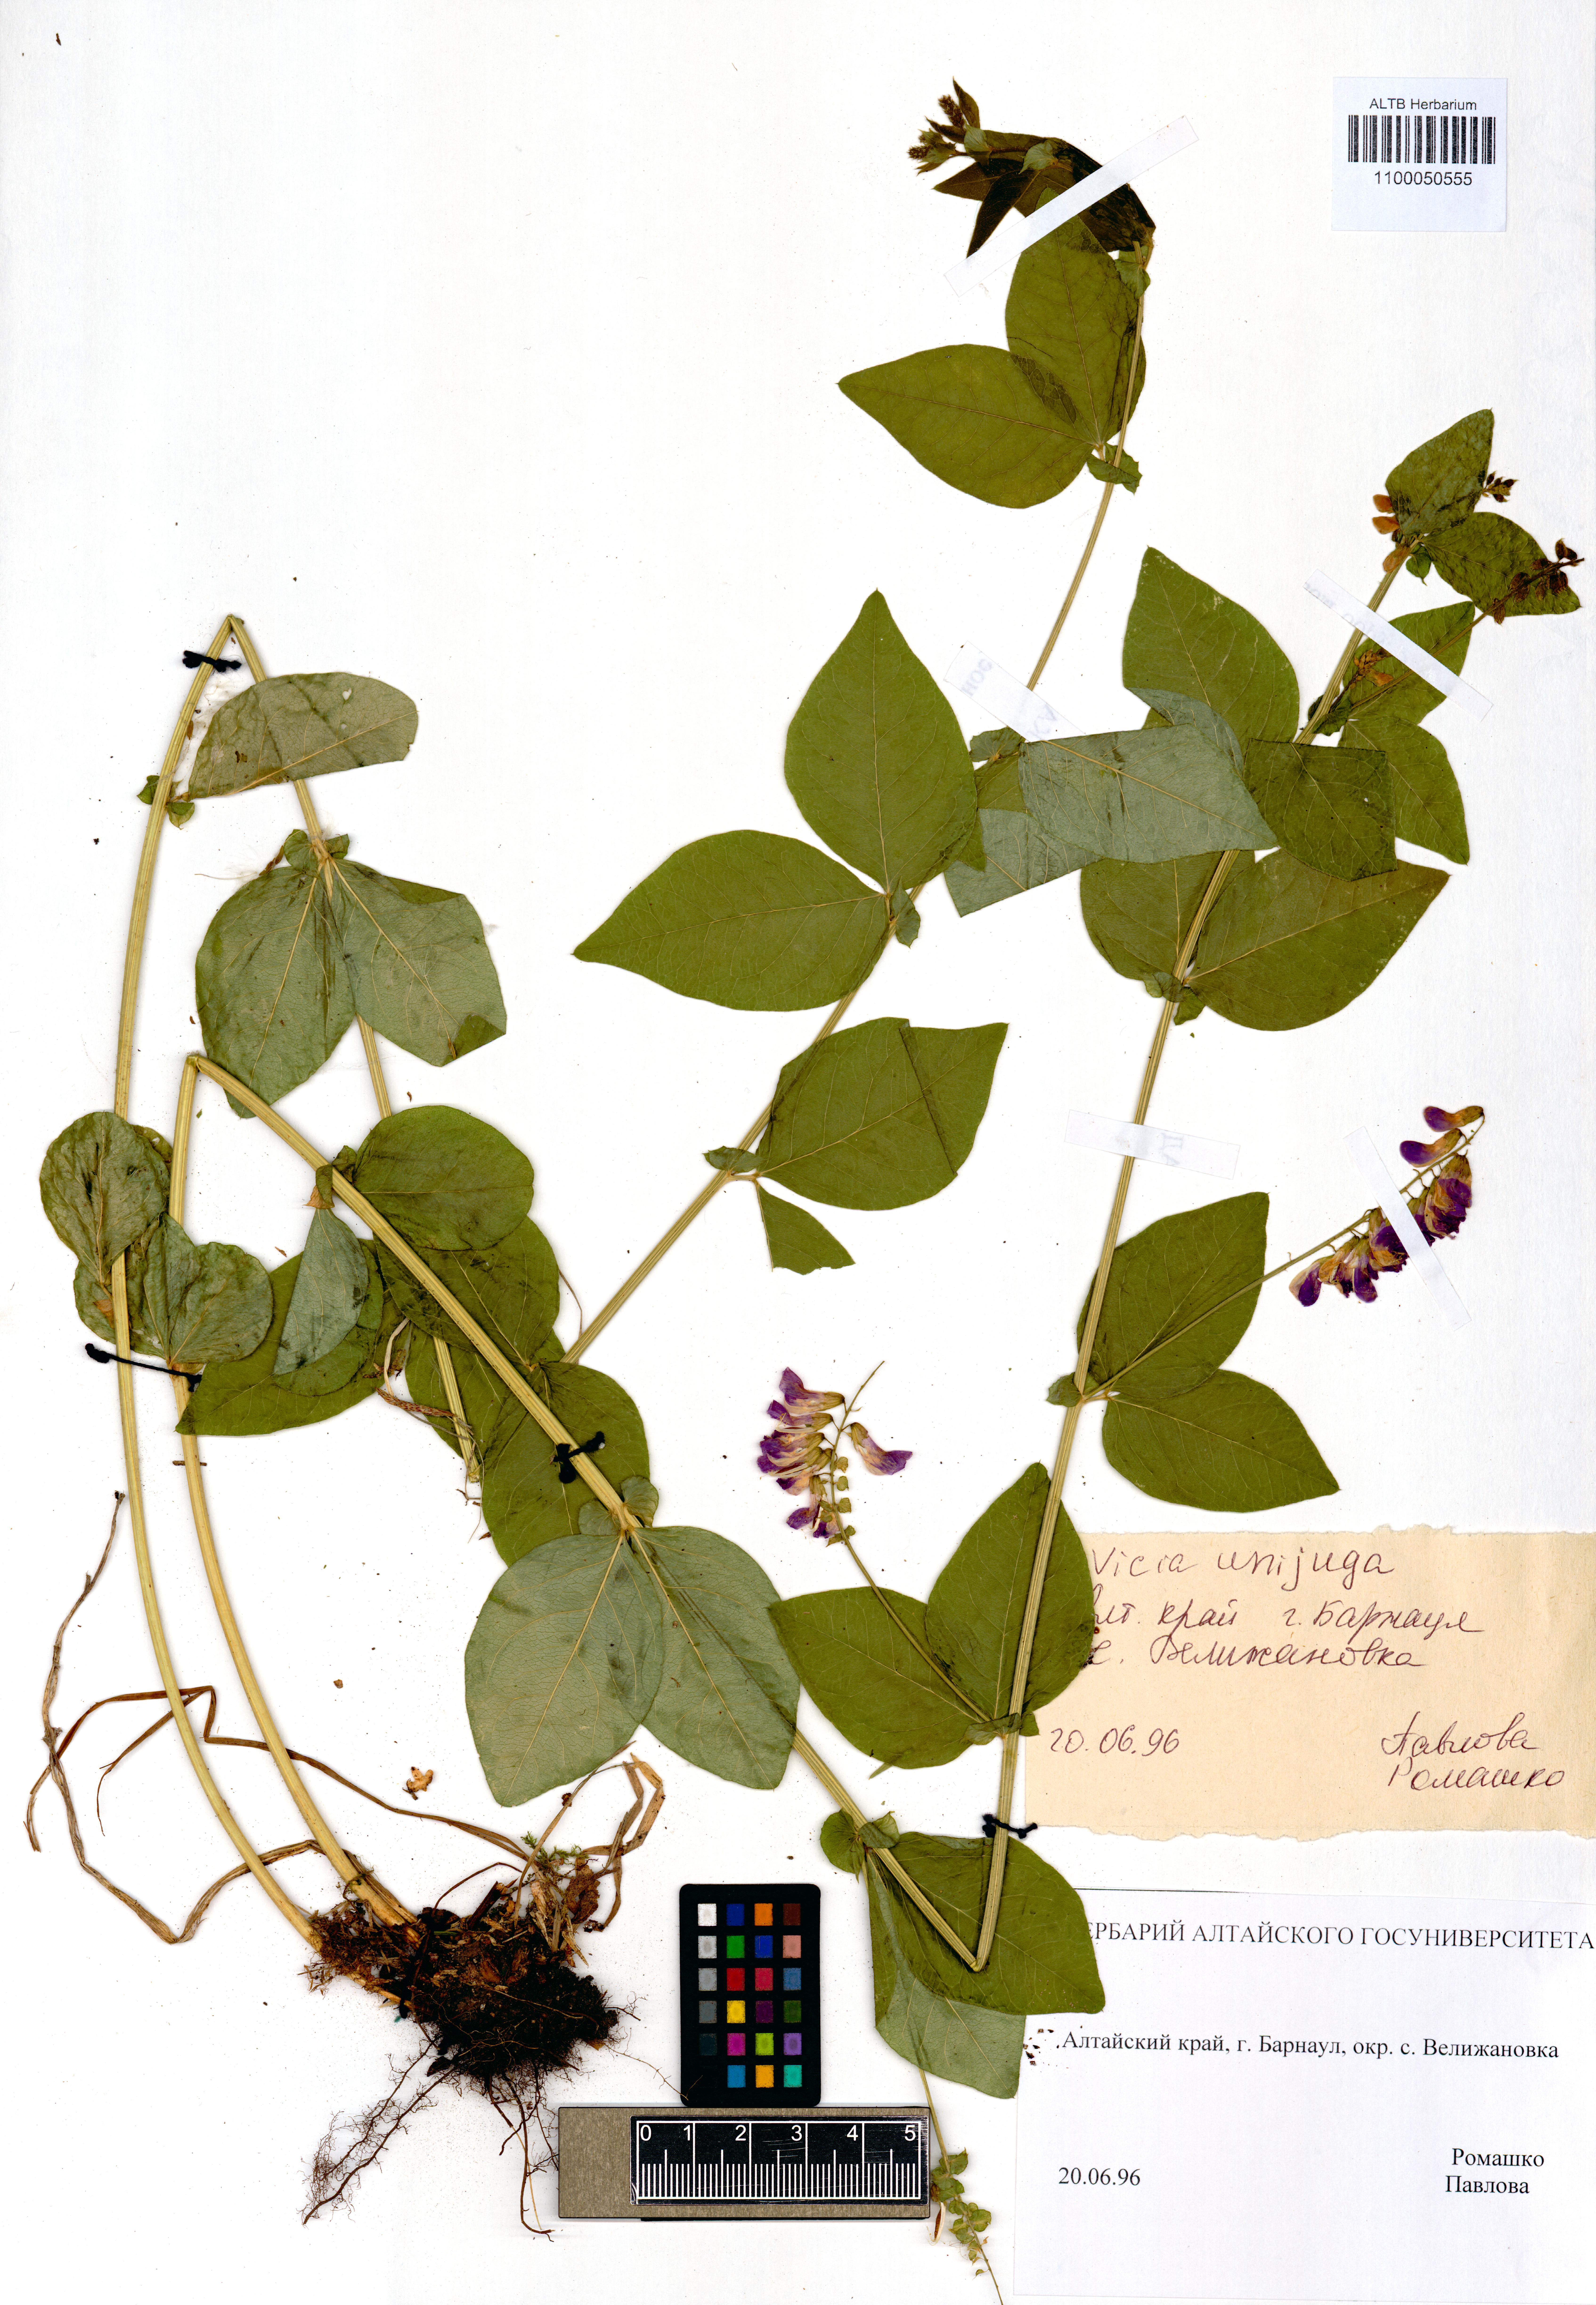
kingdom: Plantae
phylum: Tracheophyta
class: Magnoliopsida
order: Fabales
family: Fabaceae
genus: Vicia
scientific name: Vicia unijuga
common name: Two-leaf vetch
